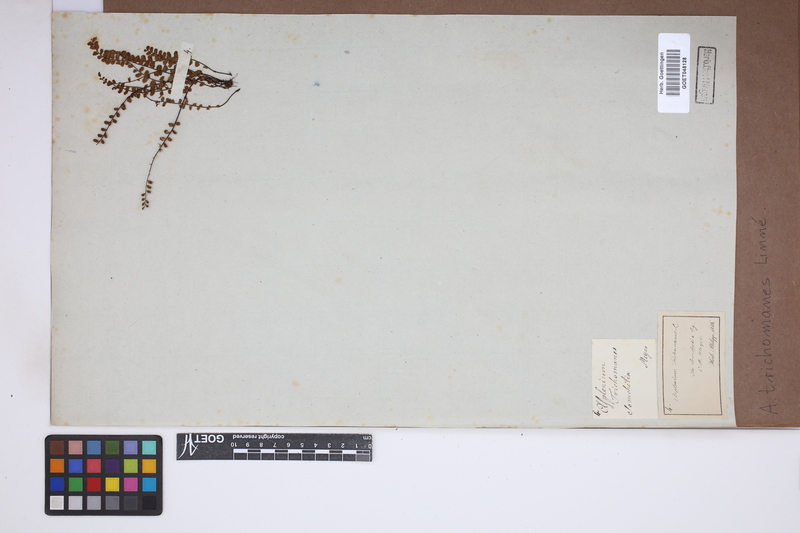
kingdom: Plantae
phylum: Tracheophyta
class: Polypodiopsida
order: Polypodiales
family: Aspleniaceae
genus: Asplenium
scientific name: Asplenium trichomanes
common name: Maidenhair spleenwort
